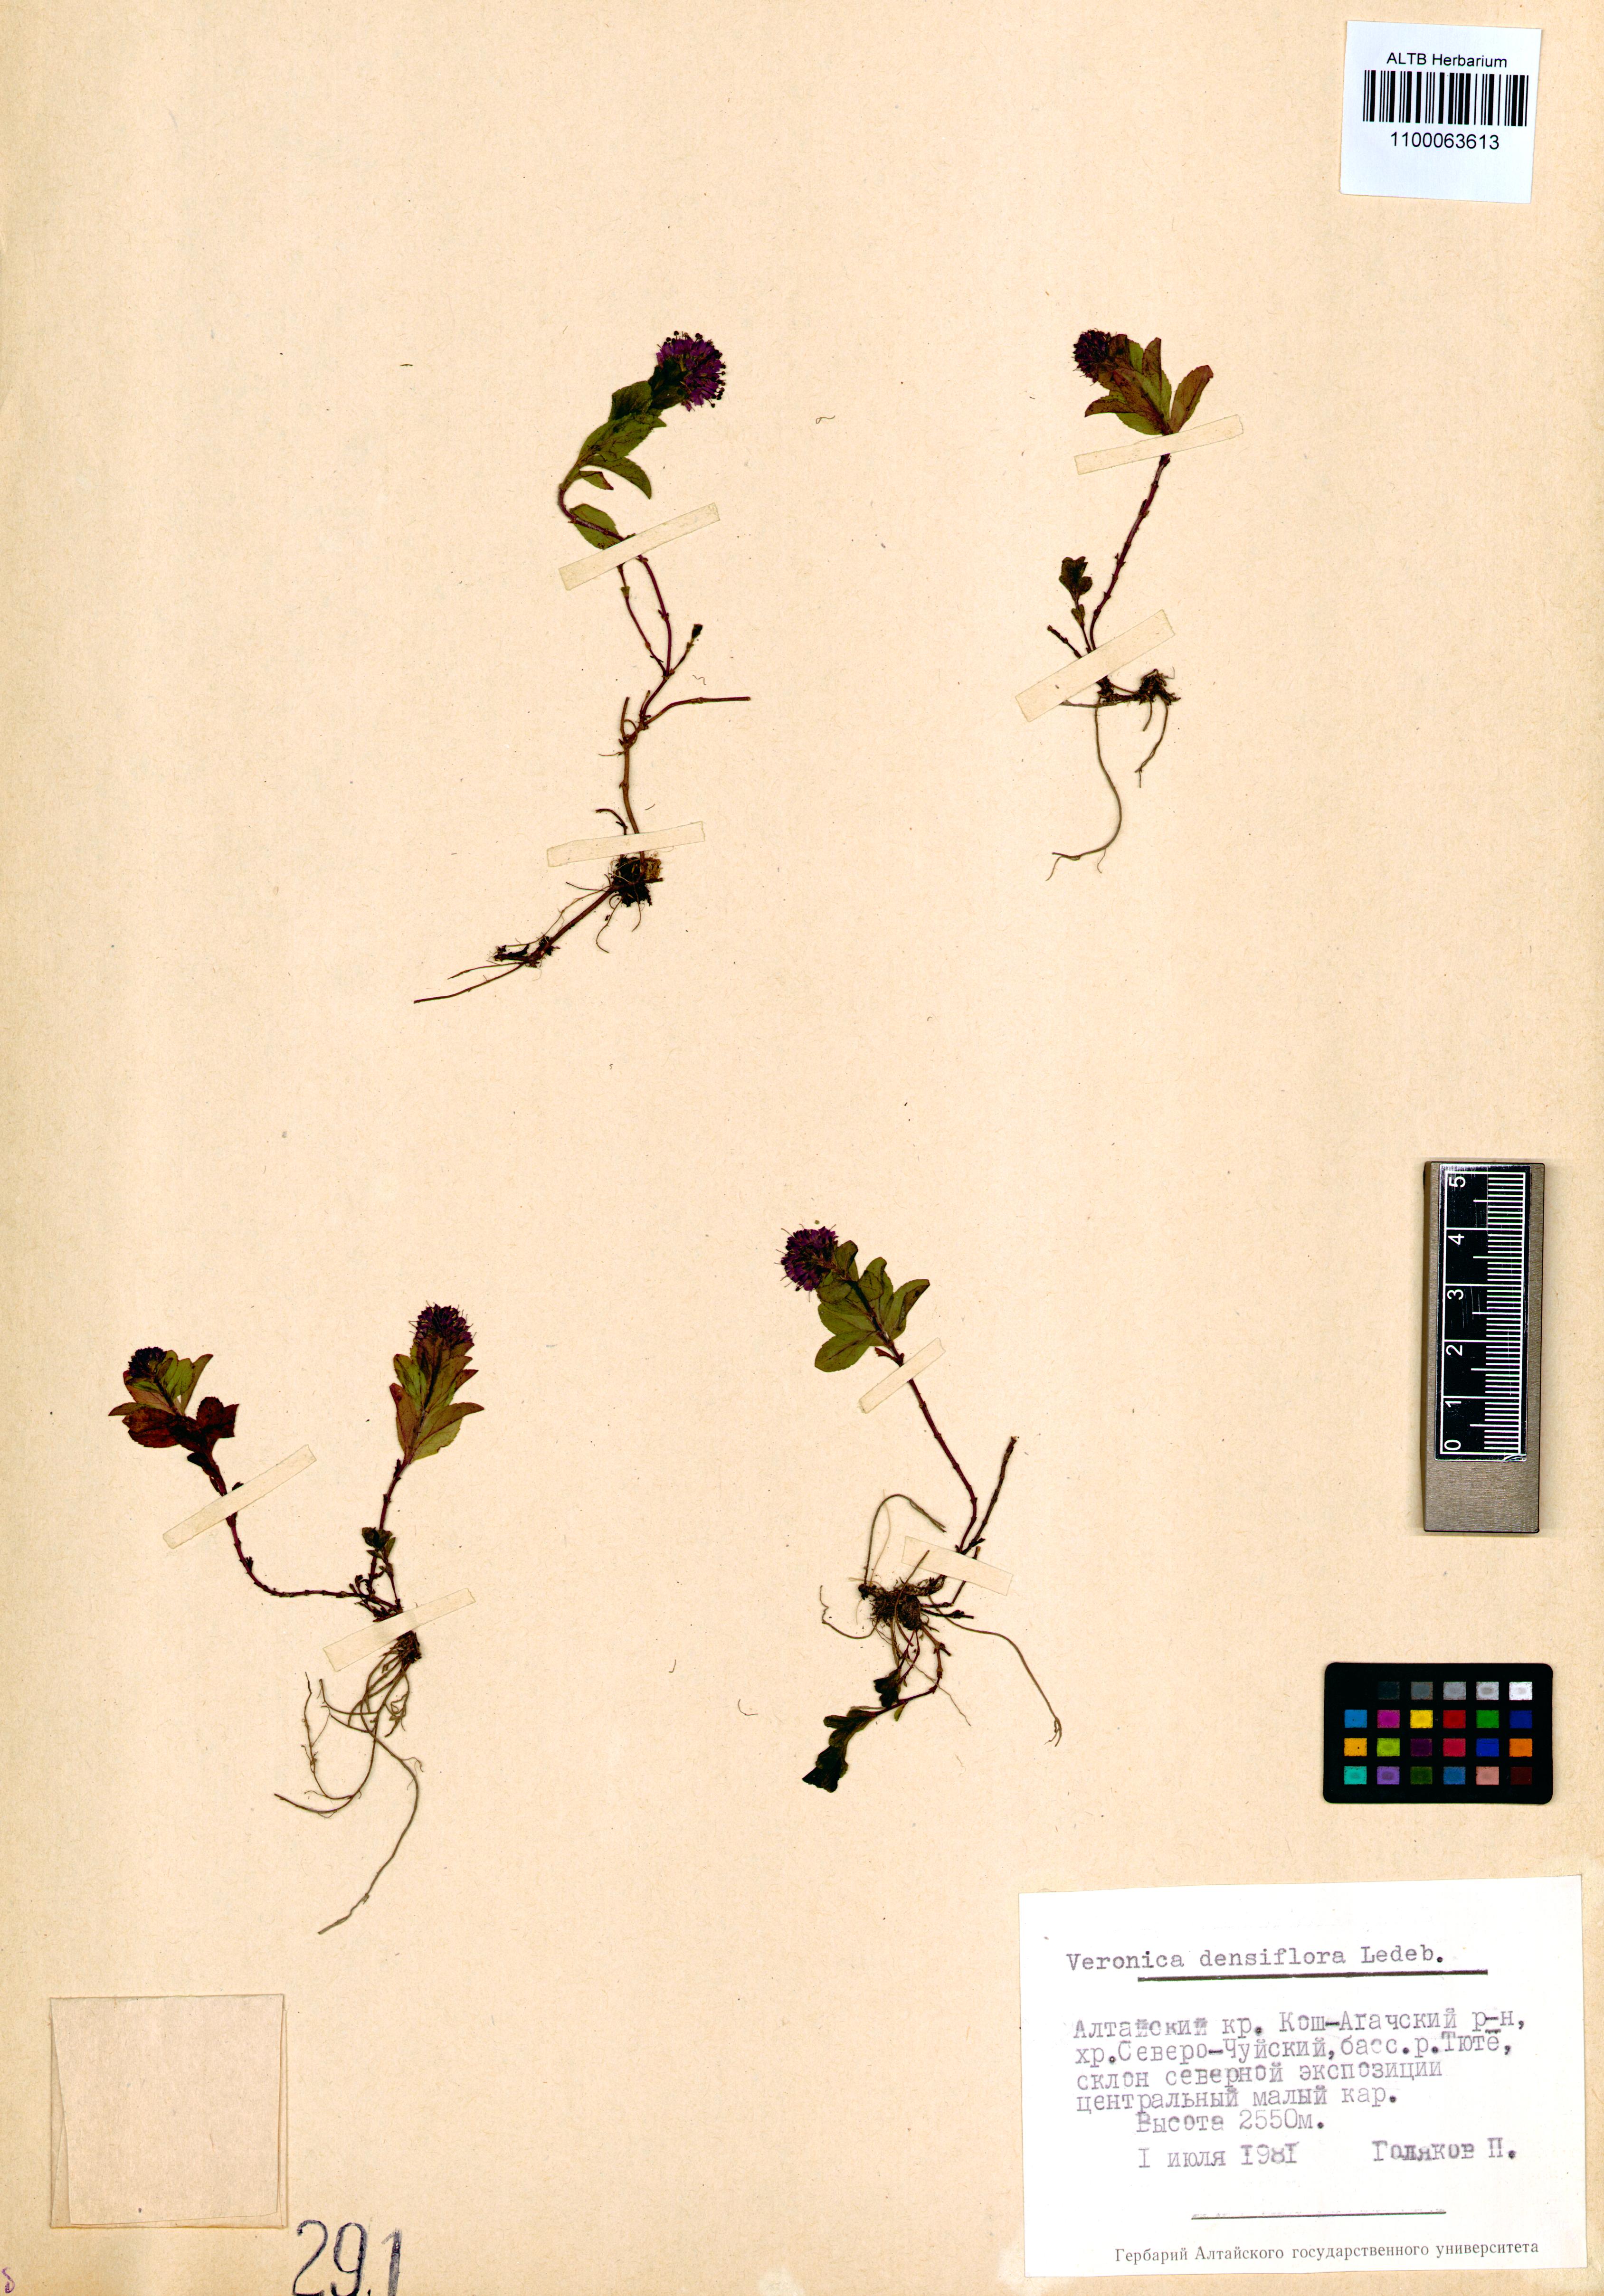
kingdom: Plantae
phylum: Tracheophyta
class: Magnoliopsida
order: Lamiales
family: Plantaginaceae
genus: Veronica
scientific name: Veronica densiflora
